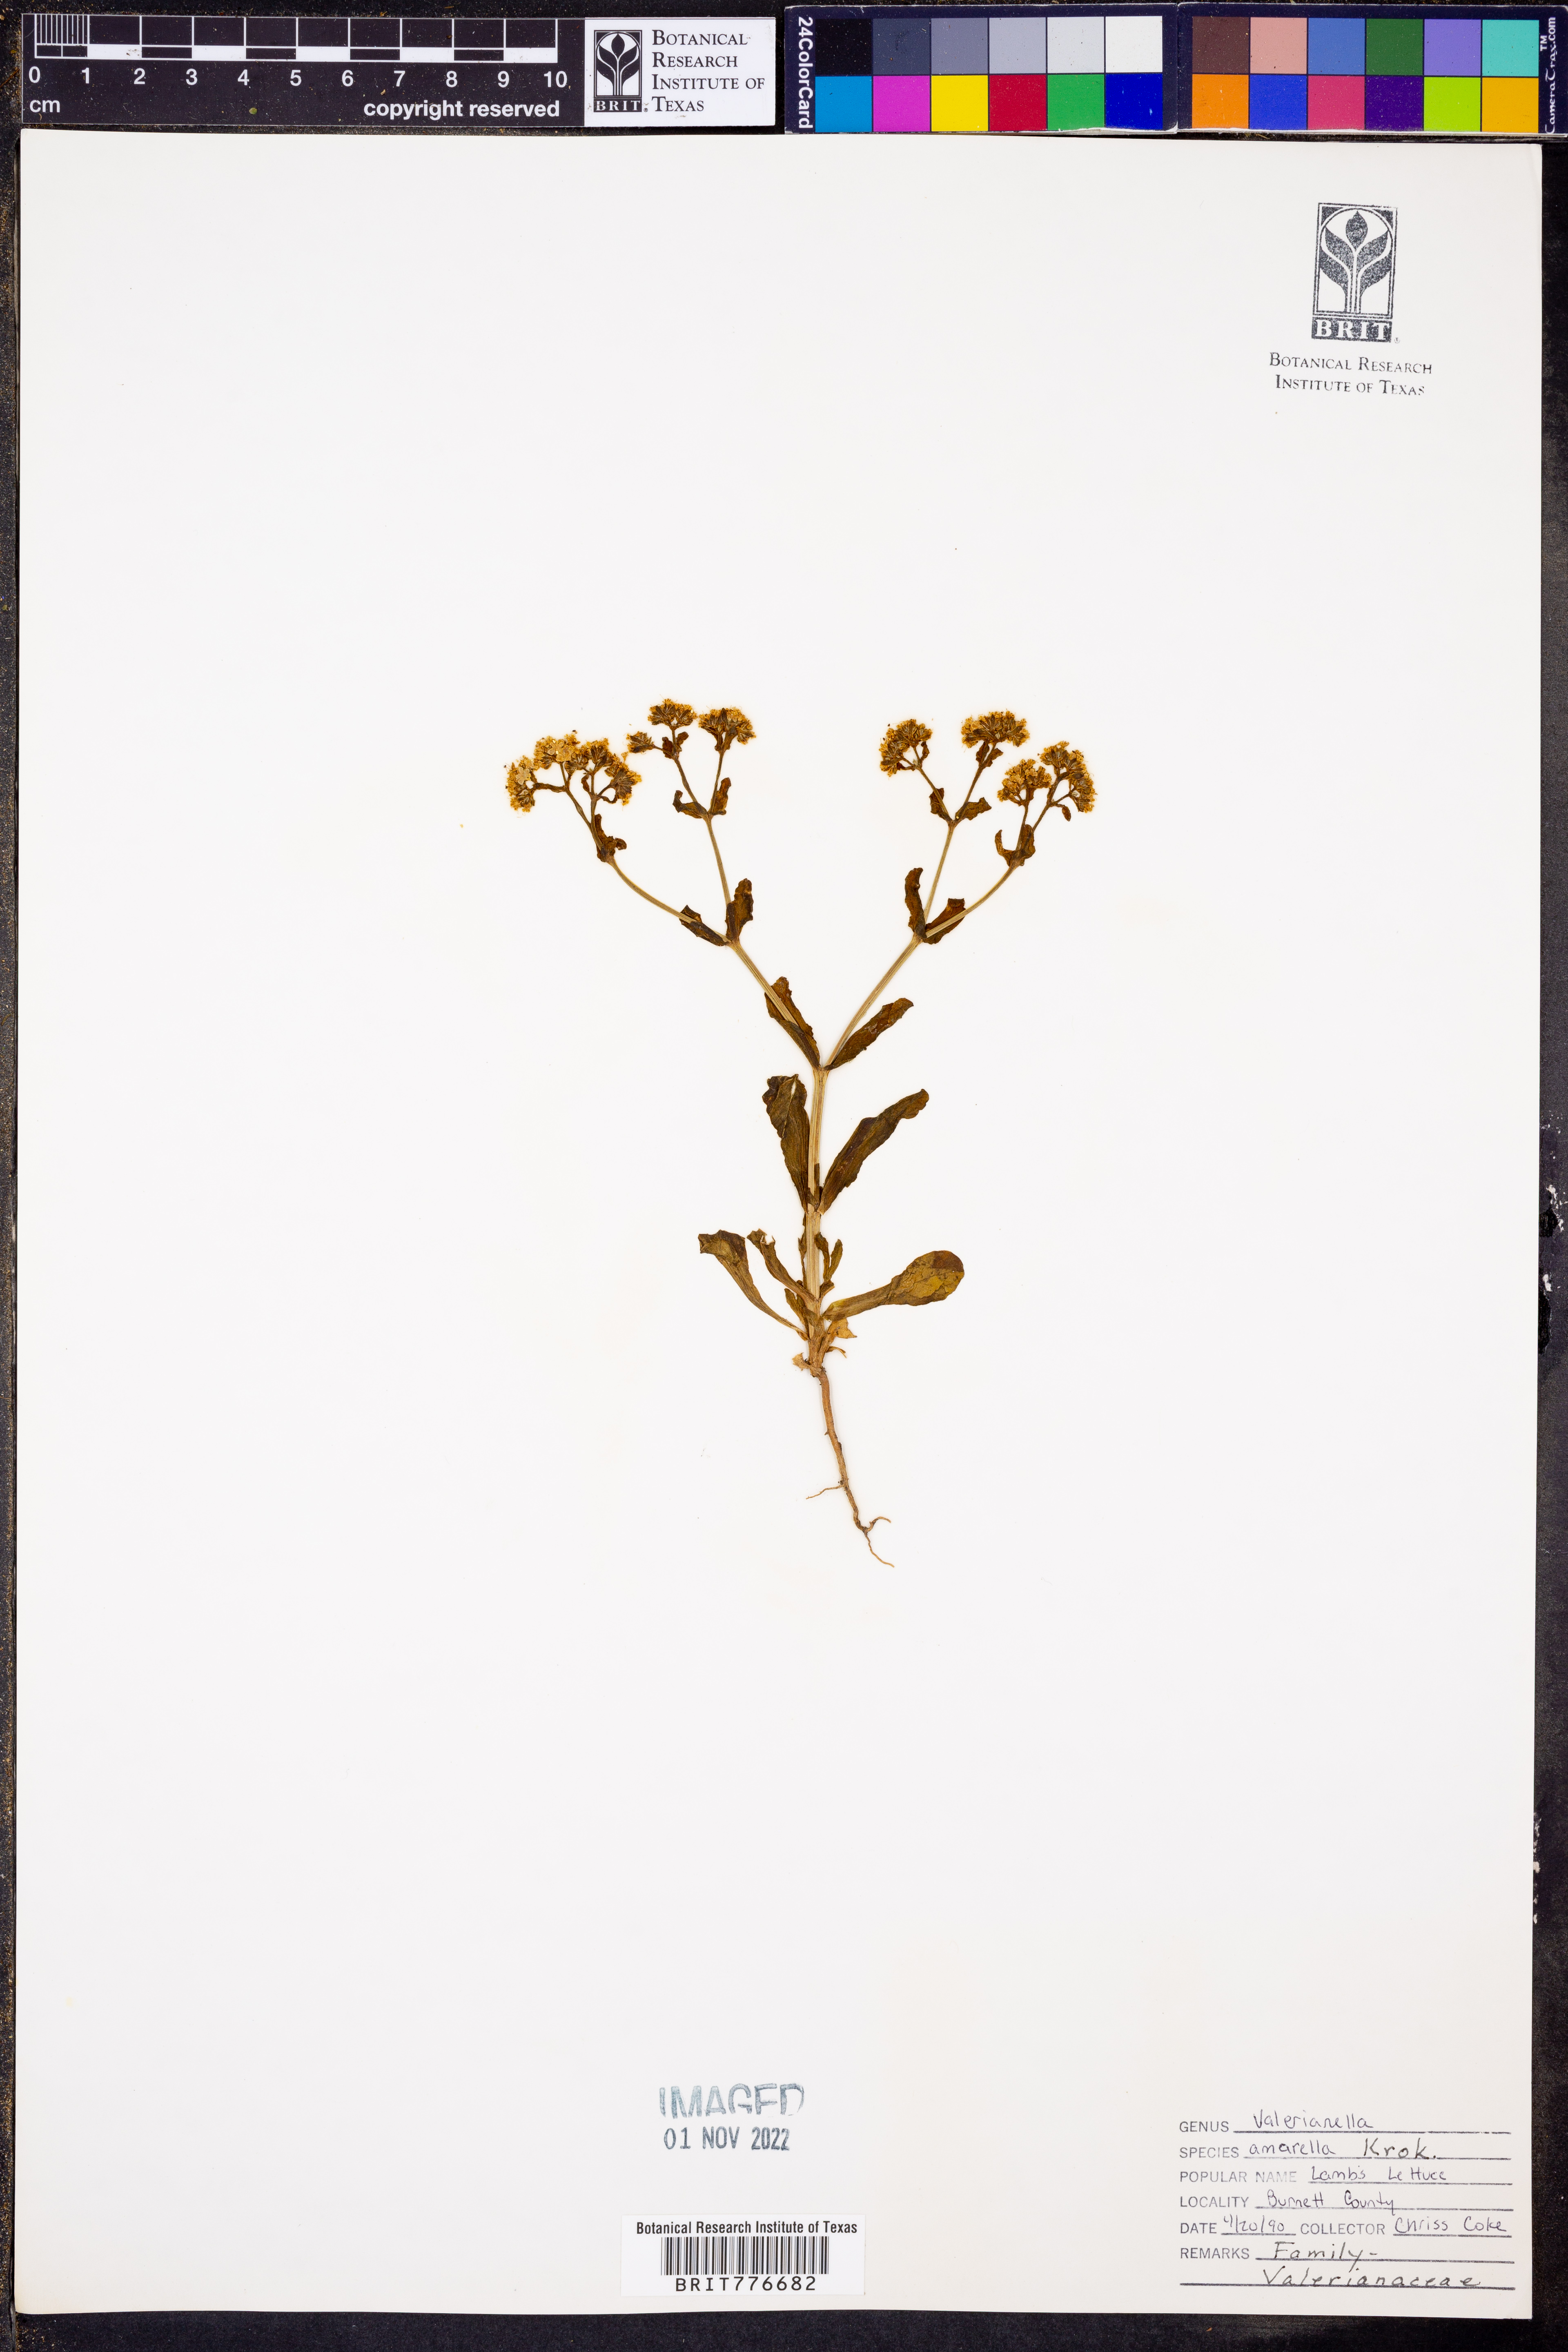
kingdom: Plantae
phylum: Tracheophyta
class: Magnoliopsida
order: Dipsacales
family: Caprifoliaceae
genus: Valerianella
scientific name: Valerianella amarella
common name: Hariy cornsalad
